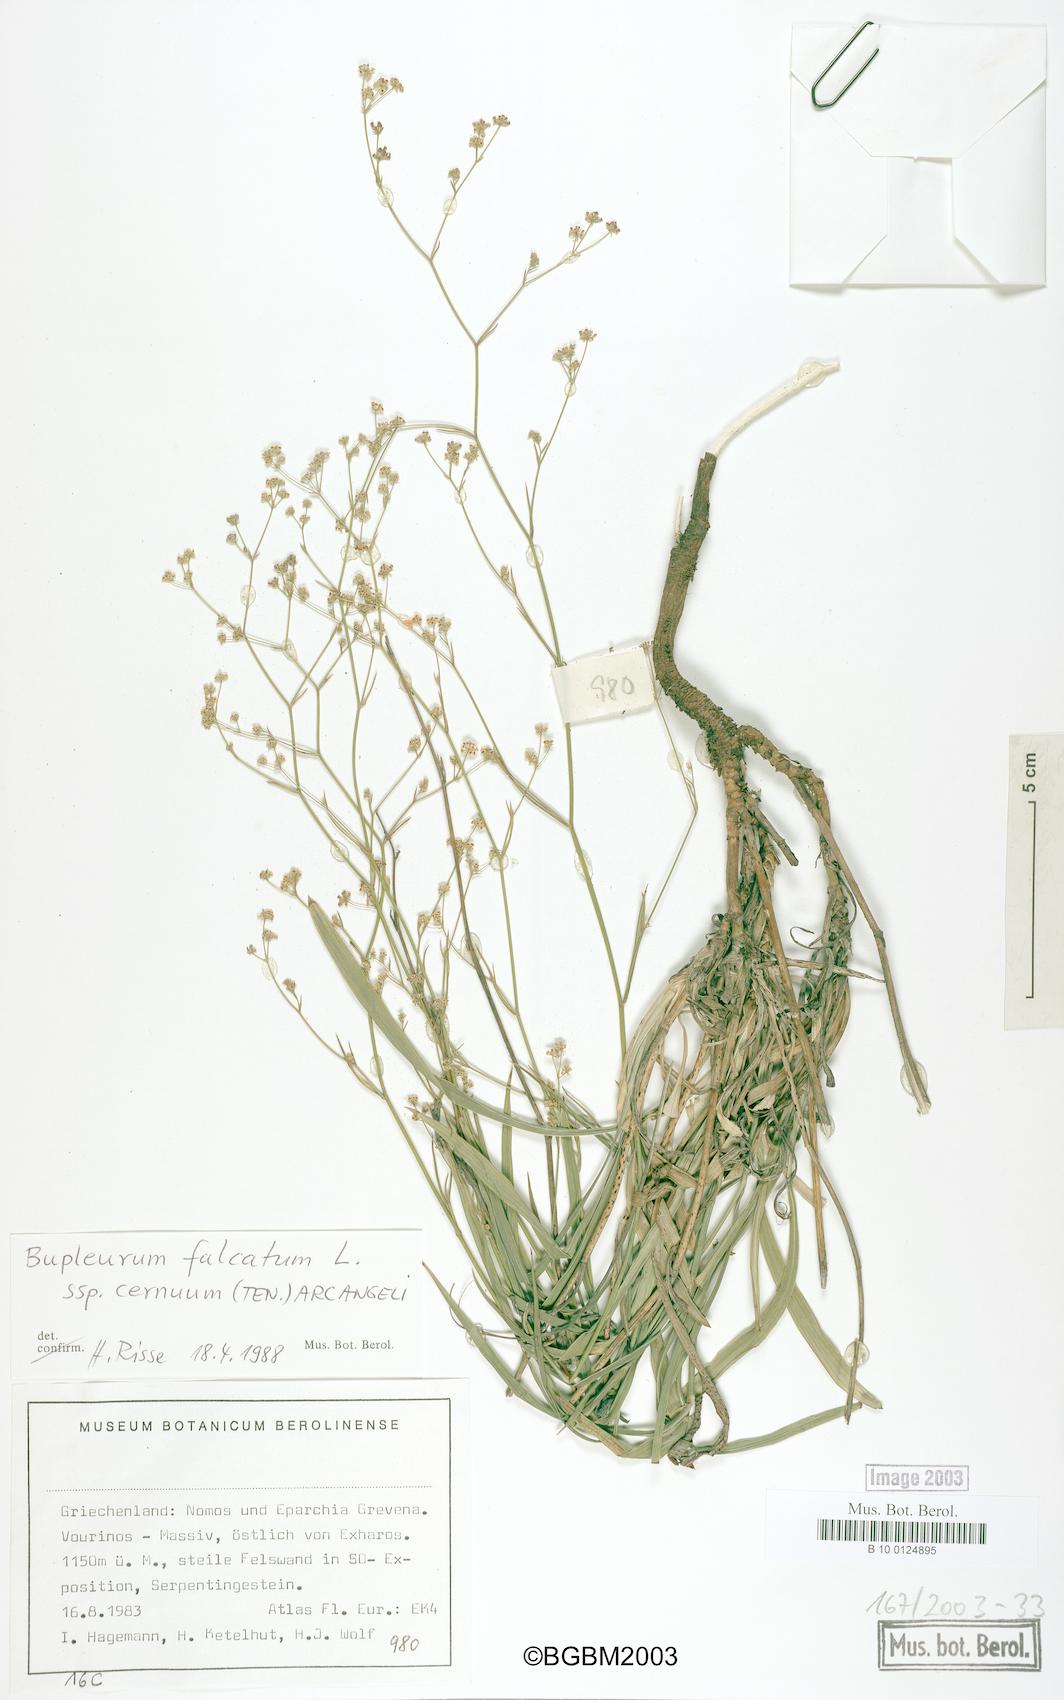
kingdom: Plantae
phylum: Tracheophyta
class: Magnoliopsida
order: Apiales
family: Apiaceae
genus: Bupleurum
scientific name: Bupleurum exaltatum
